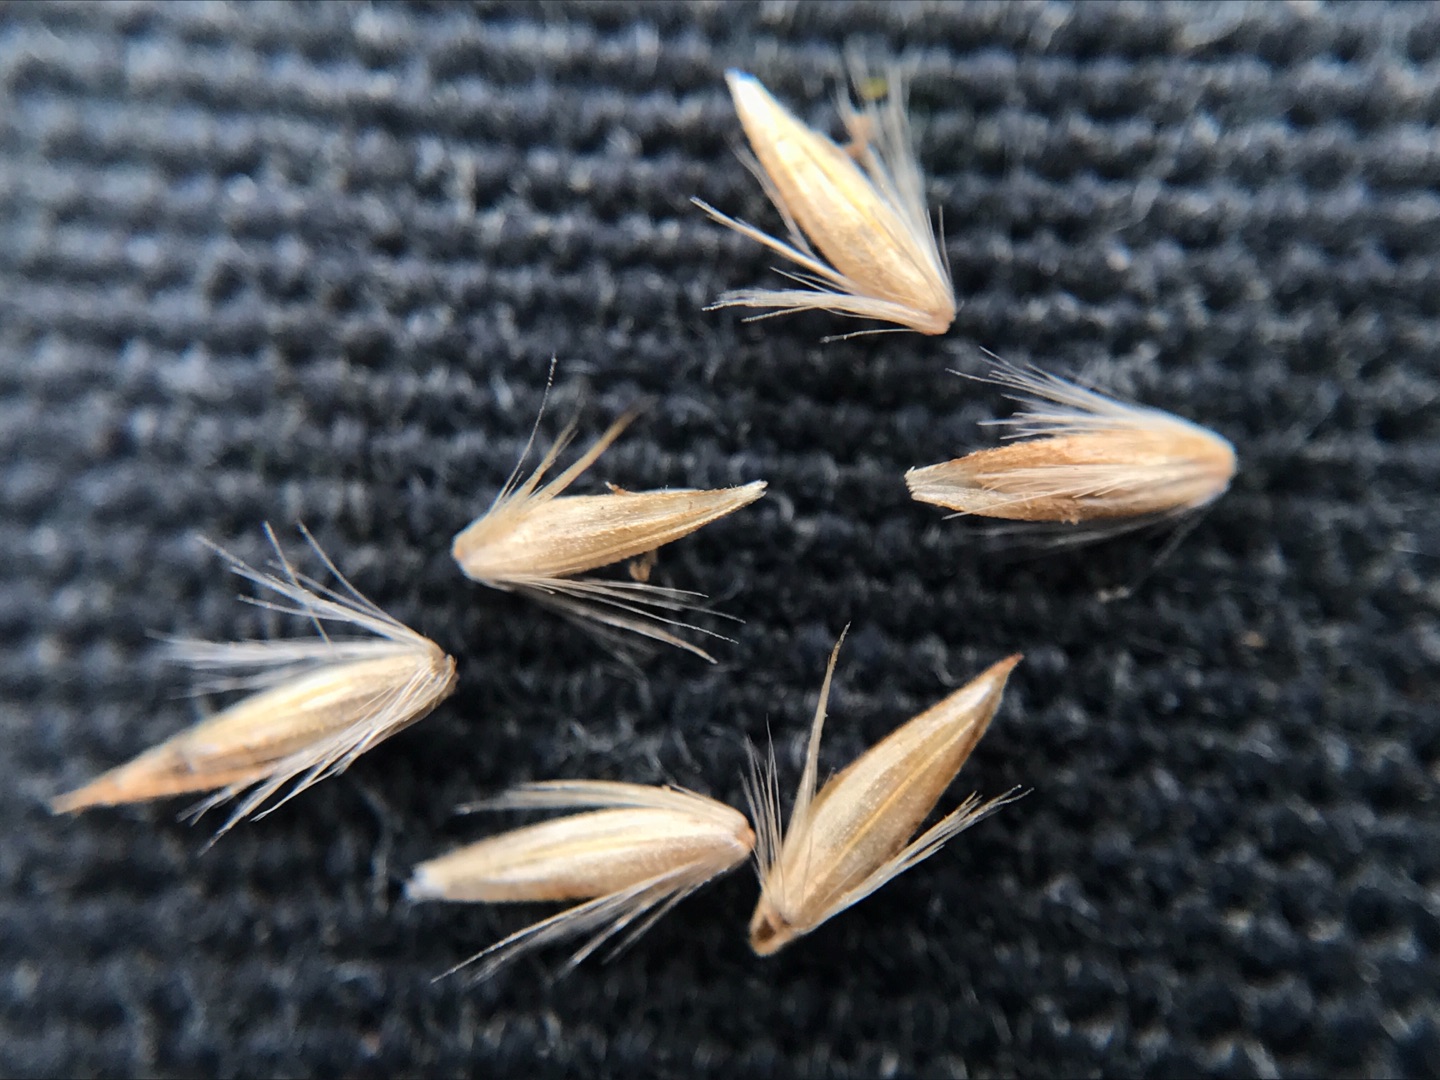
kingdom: Plantae
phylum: Tracheophyta
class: Liliopsida
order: Poales
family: Poaceae
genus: Achnatherum
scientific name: Achnatherum calamagrostis
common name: Stivtoppet rørhvene
